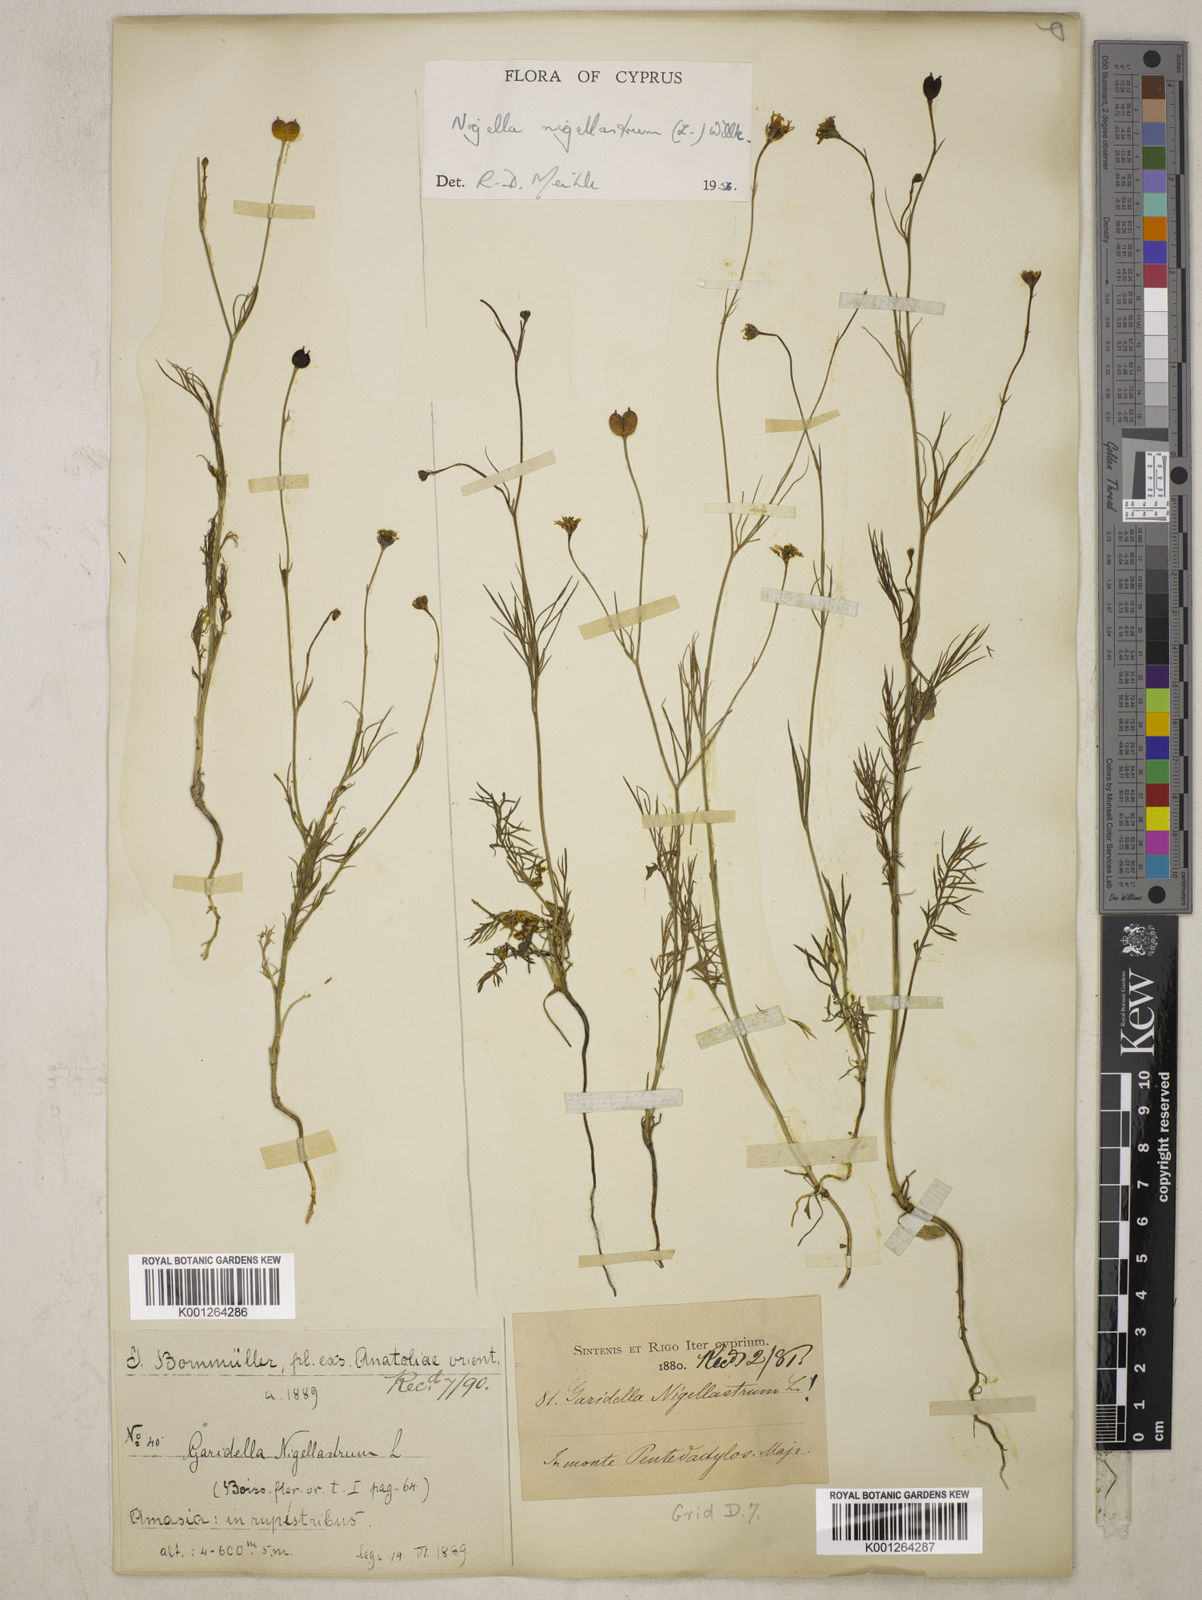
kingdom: Plantae
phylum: Tracheophyta
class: Magnoliopsida
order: Ranunculales
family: Ranunculaceae
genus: Garidella
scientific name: Garidella nigellastrum
